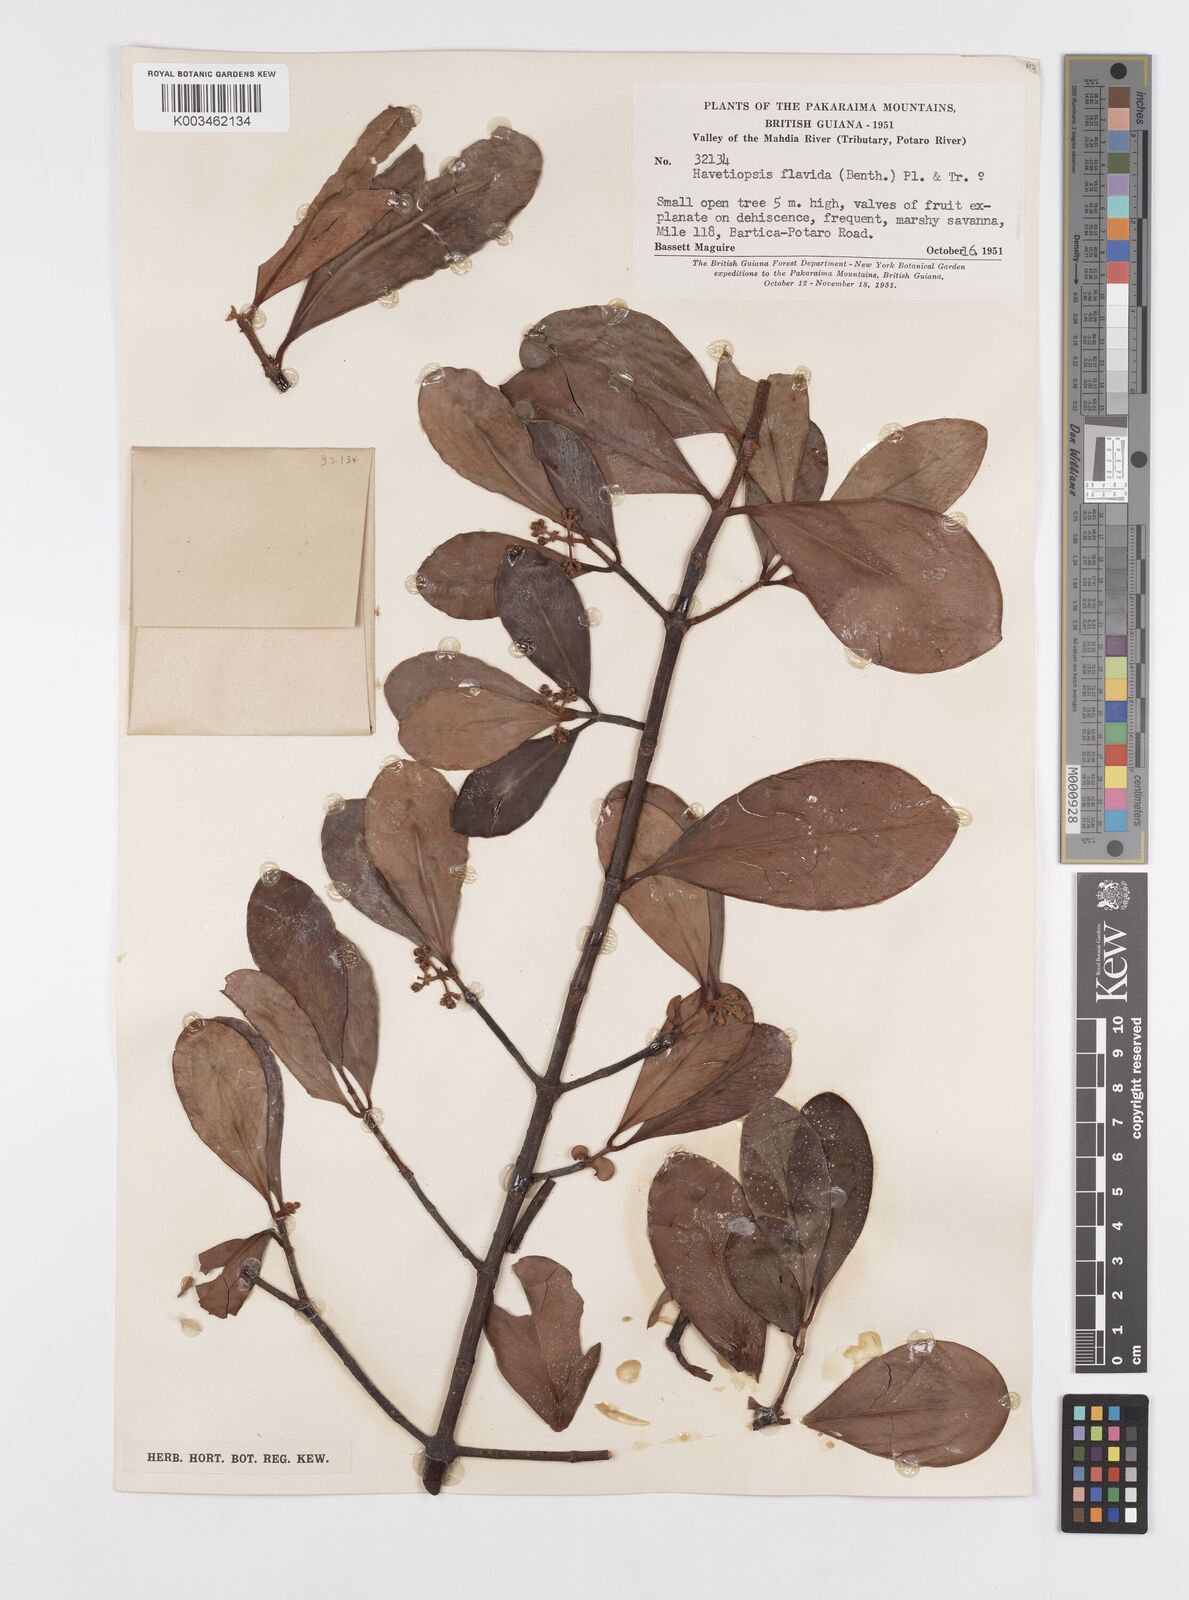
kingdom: Plantae
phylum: Tracheophyta
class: Magnoliopsida
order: Malpighiales
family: Clusiaceae
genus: Clusia
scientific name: Clusia flavida
